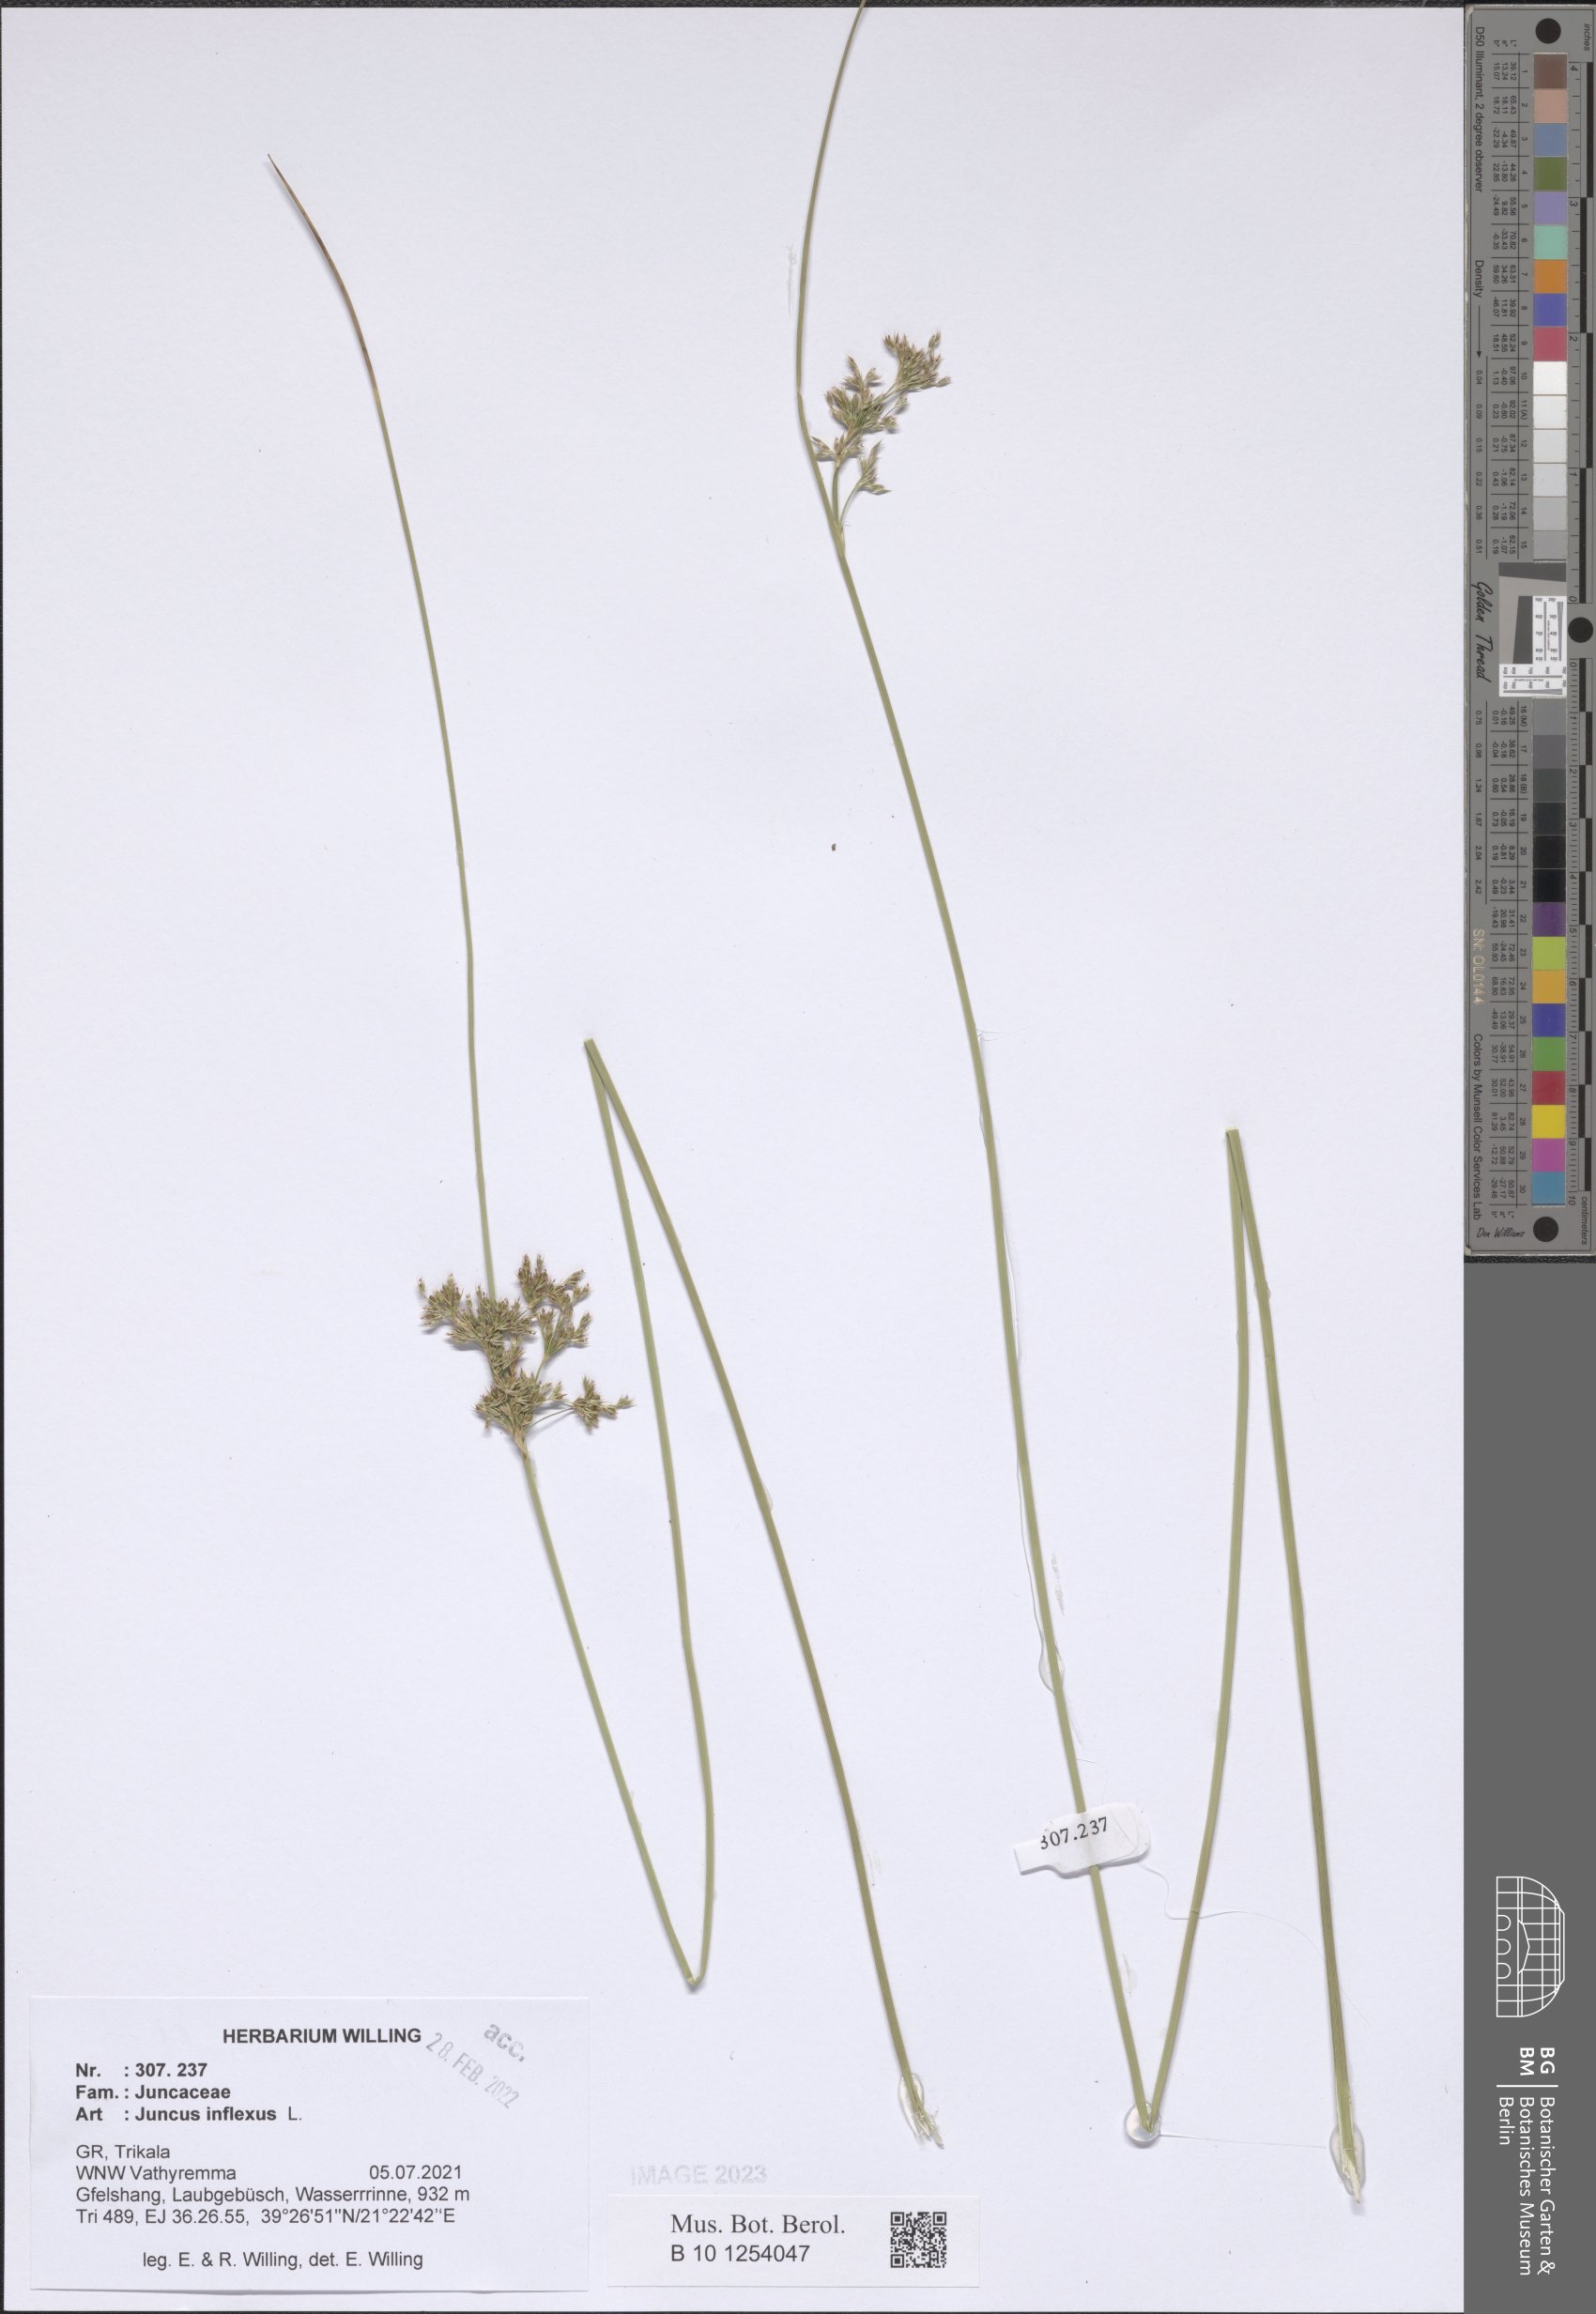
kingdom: Plantae
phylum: Tracheophyta
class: Liliopsida
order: Poales
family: Juncaceae
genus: Juncus
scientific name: Juncus inflexus
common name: Hard rush
